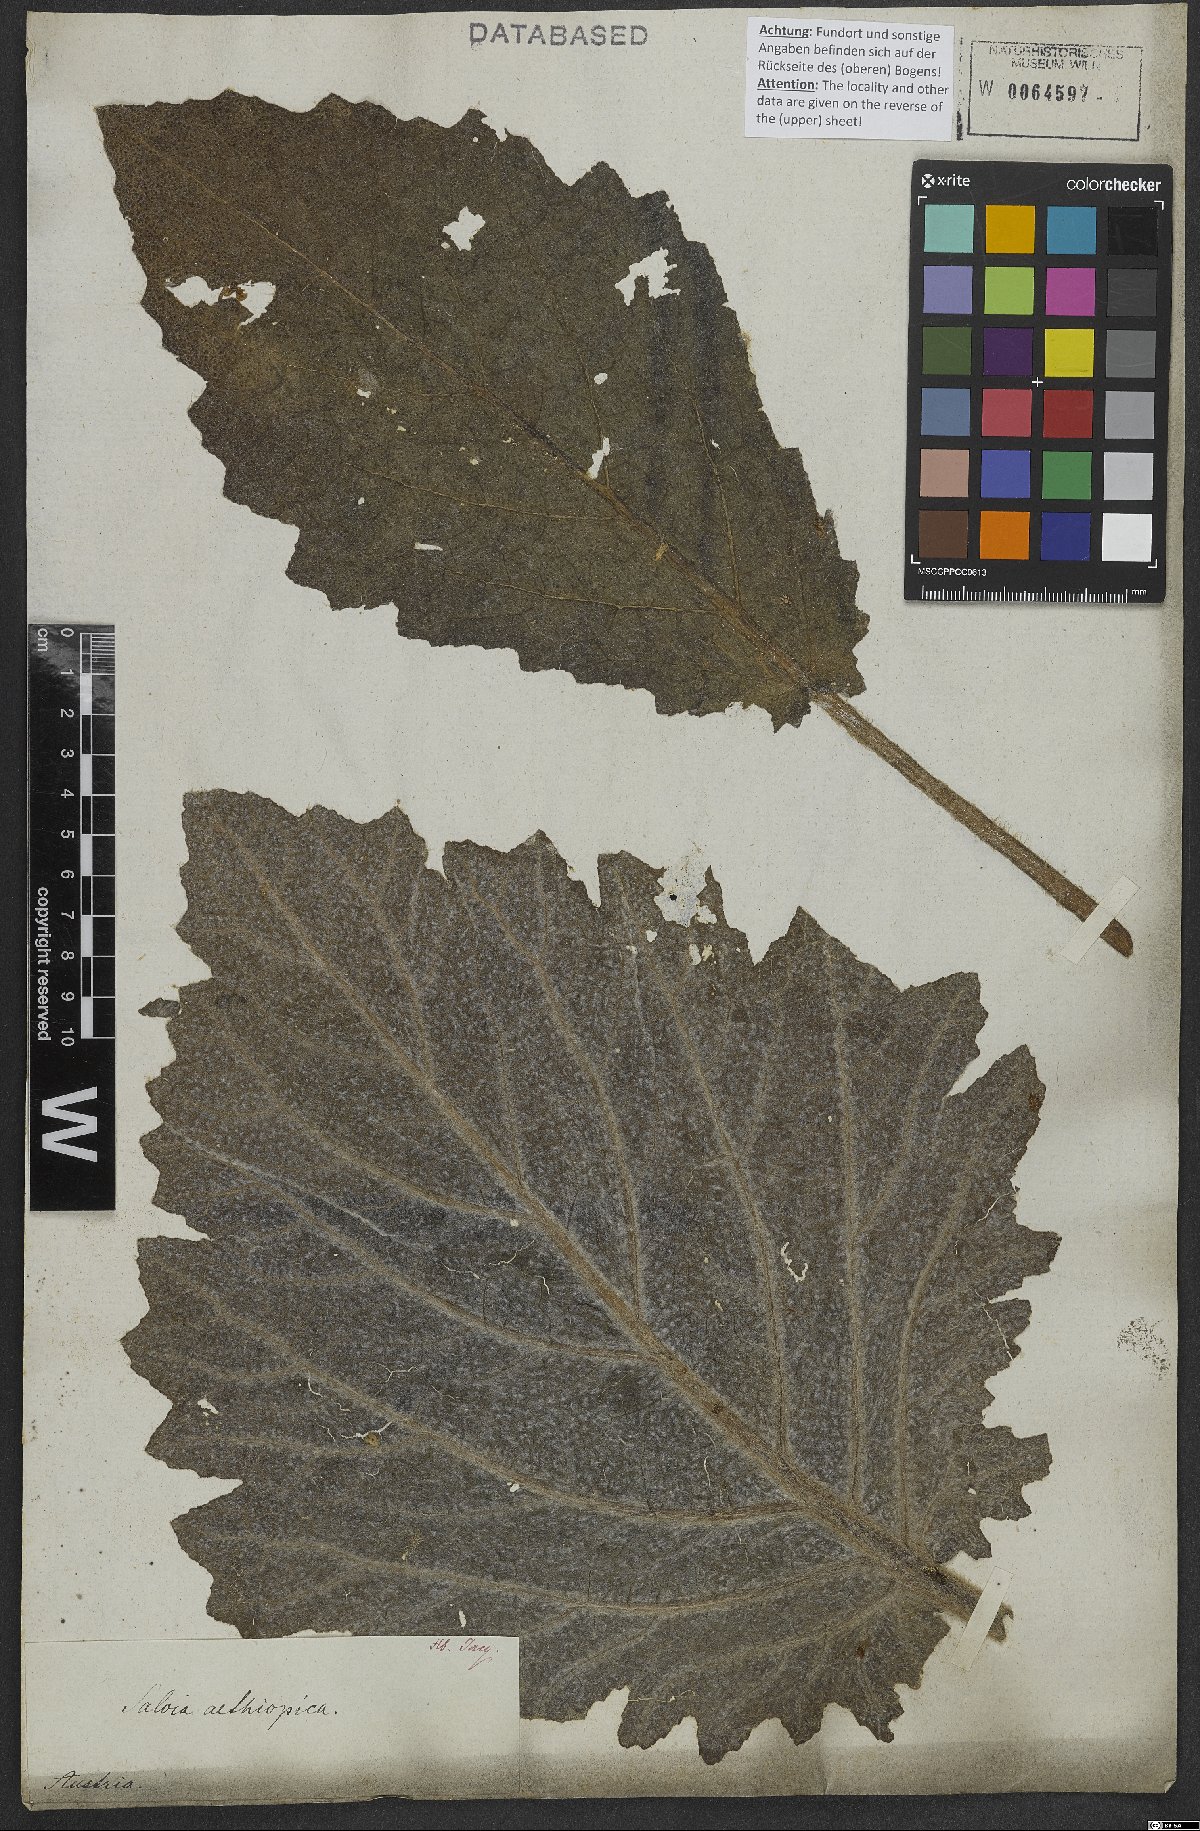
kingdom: Plantae
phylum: Tracheophyta
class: Magnoliopsida
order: Lamiales
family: Lamiaceae
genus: Salvia
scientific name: Salvia aethiopis
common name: Mediterranean sage
